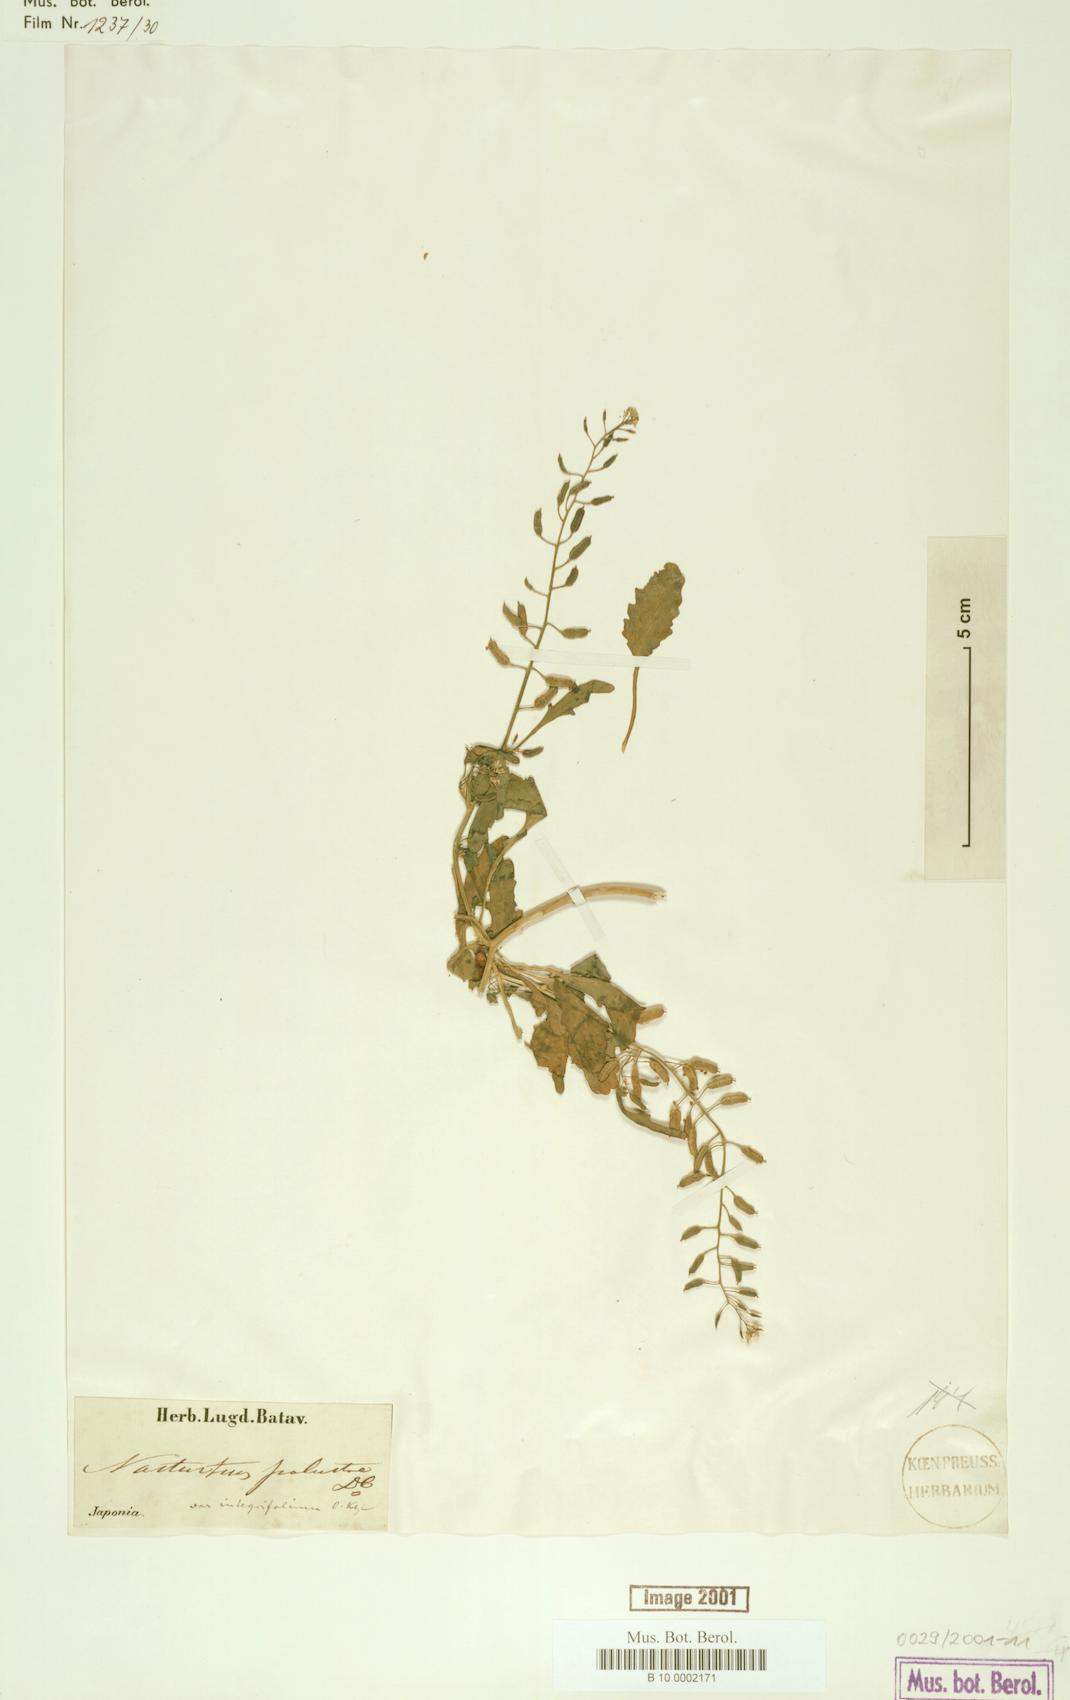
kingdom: Plantae
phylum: Tracheophyta
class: Magnoliopsida
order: Brassicales
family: Brassicaceae
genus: Rorippa
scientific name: Rorippa palustris
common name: Marsh yellow-cress
